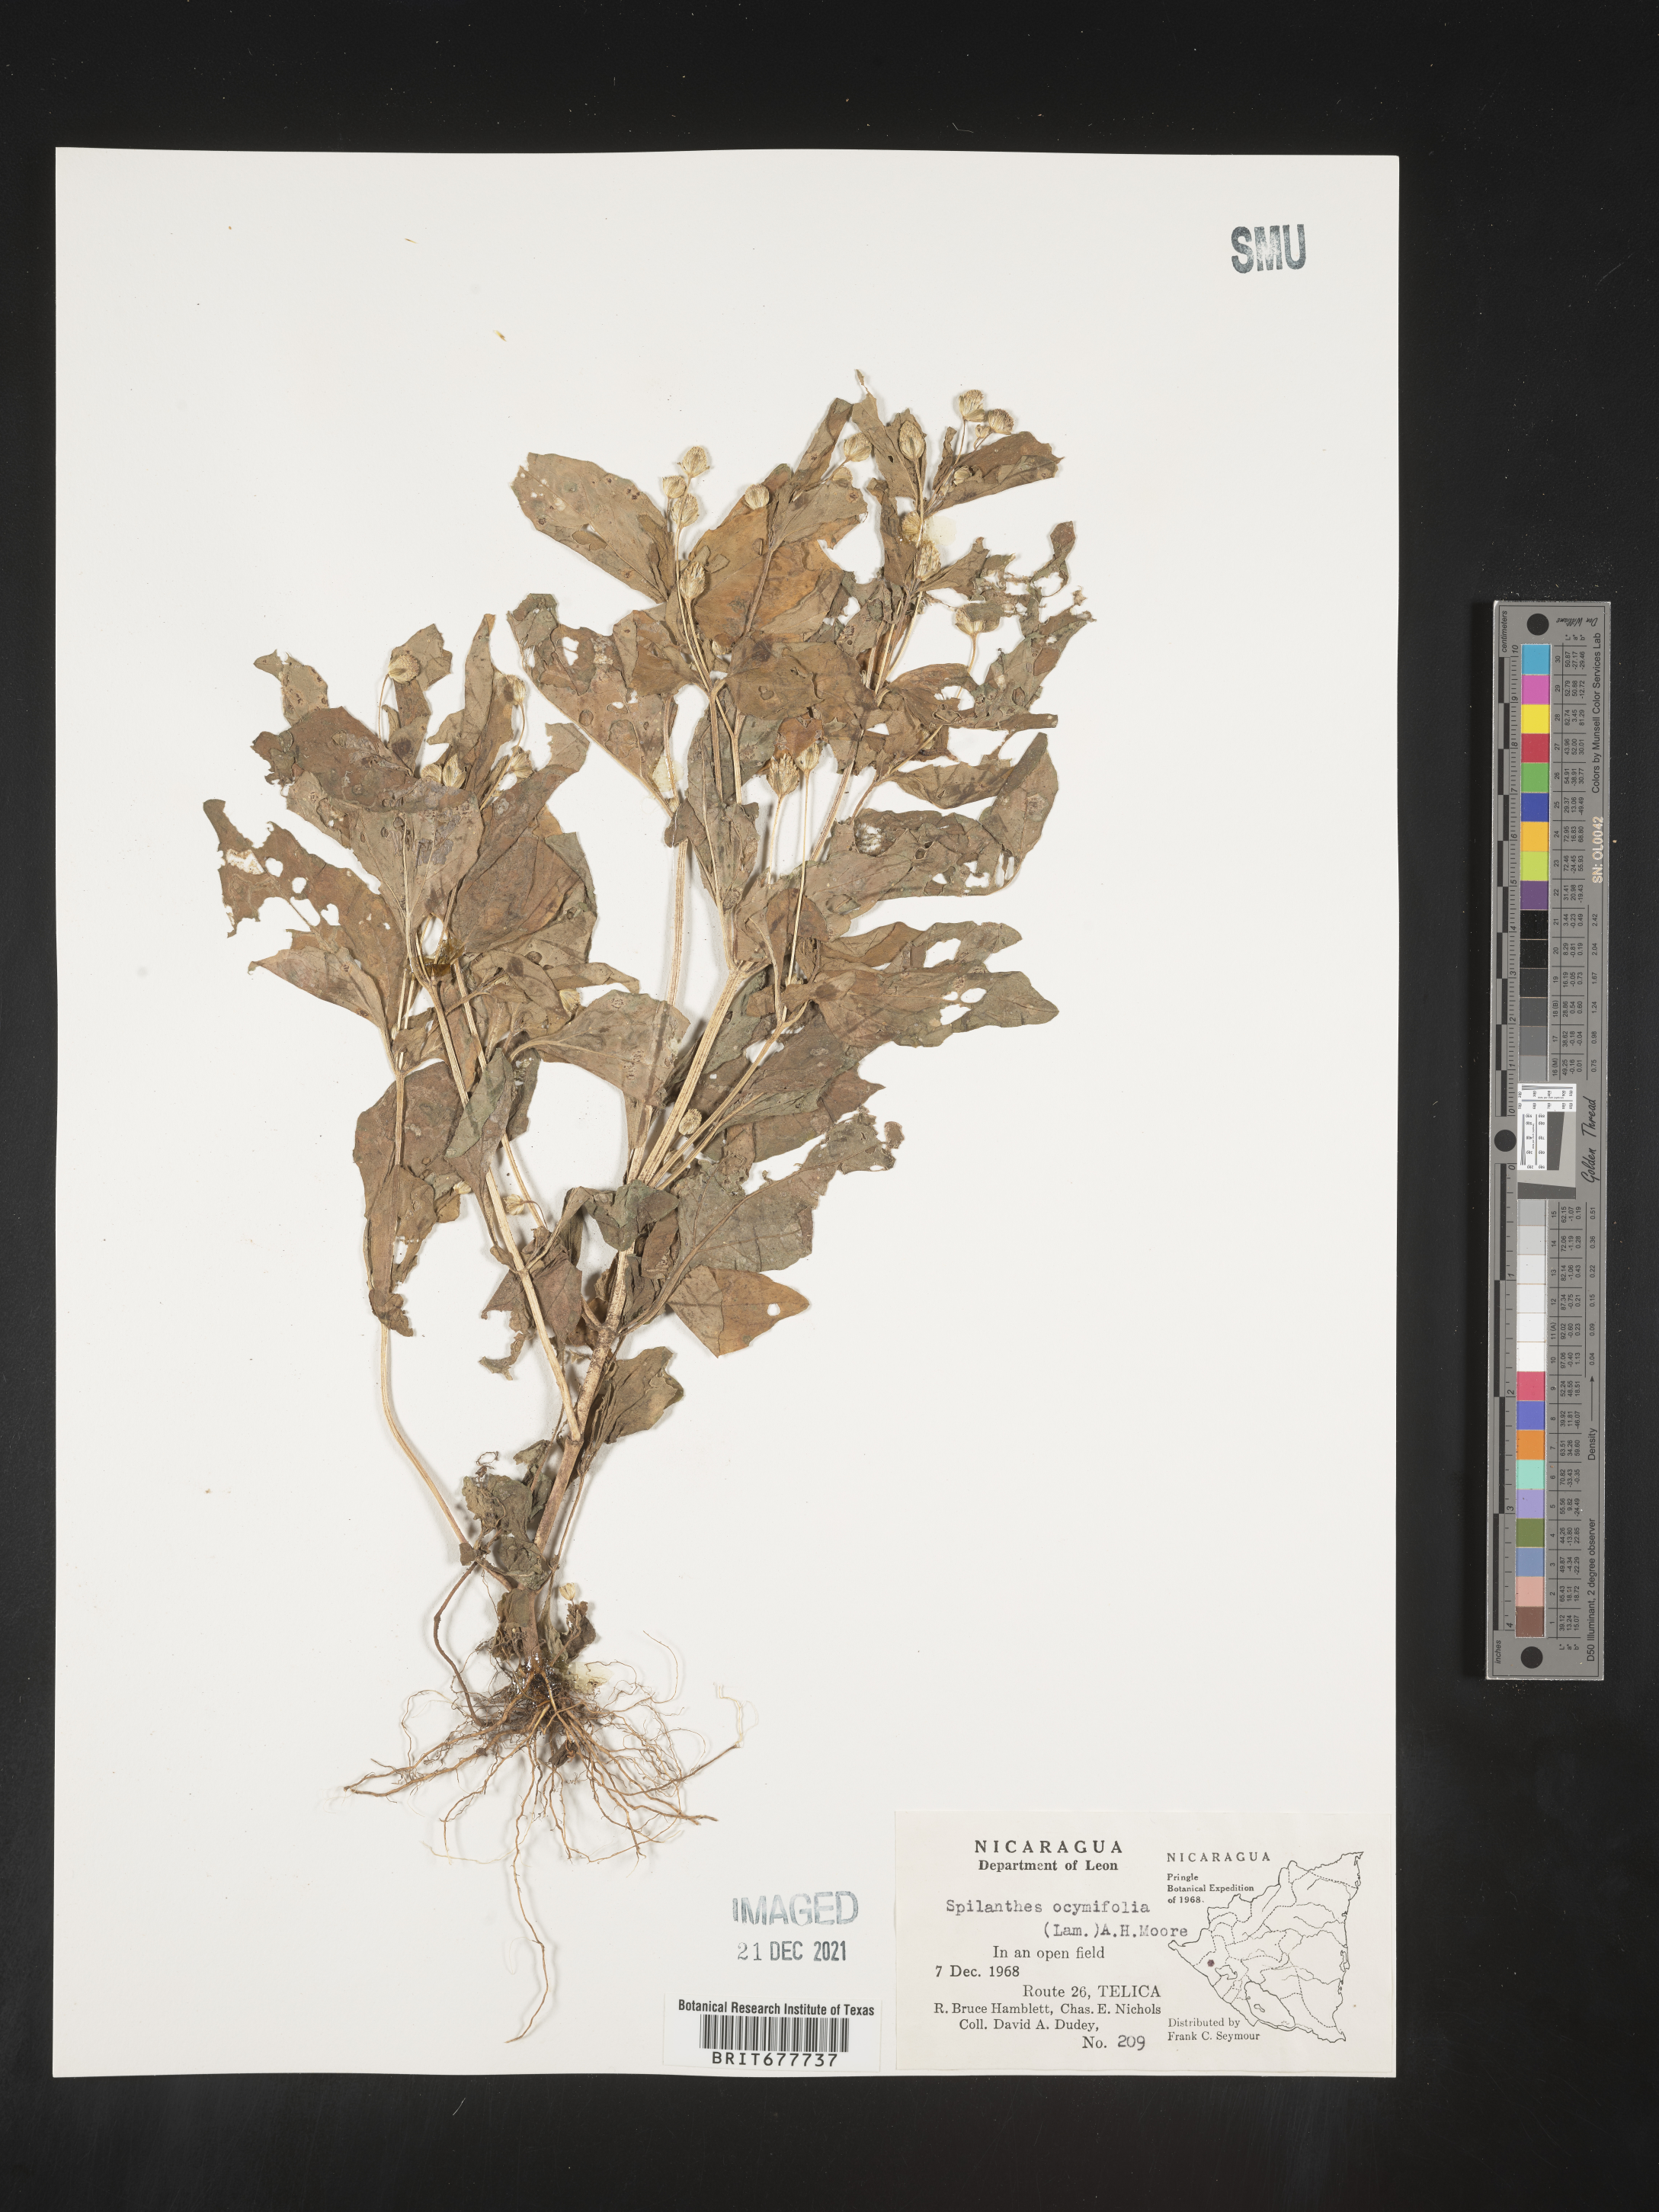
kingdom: Plantae
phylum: Tracheophyta
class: Magnoliopsida
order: Asterales
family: Asteraceae
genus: Spilanthes
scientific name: Spilanthes
